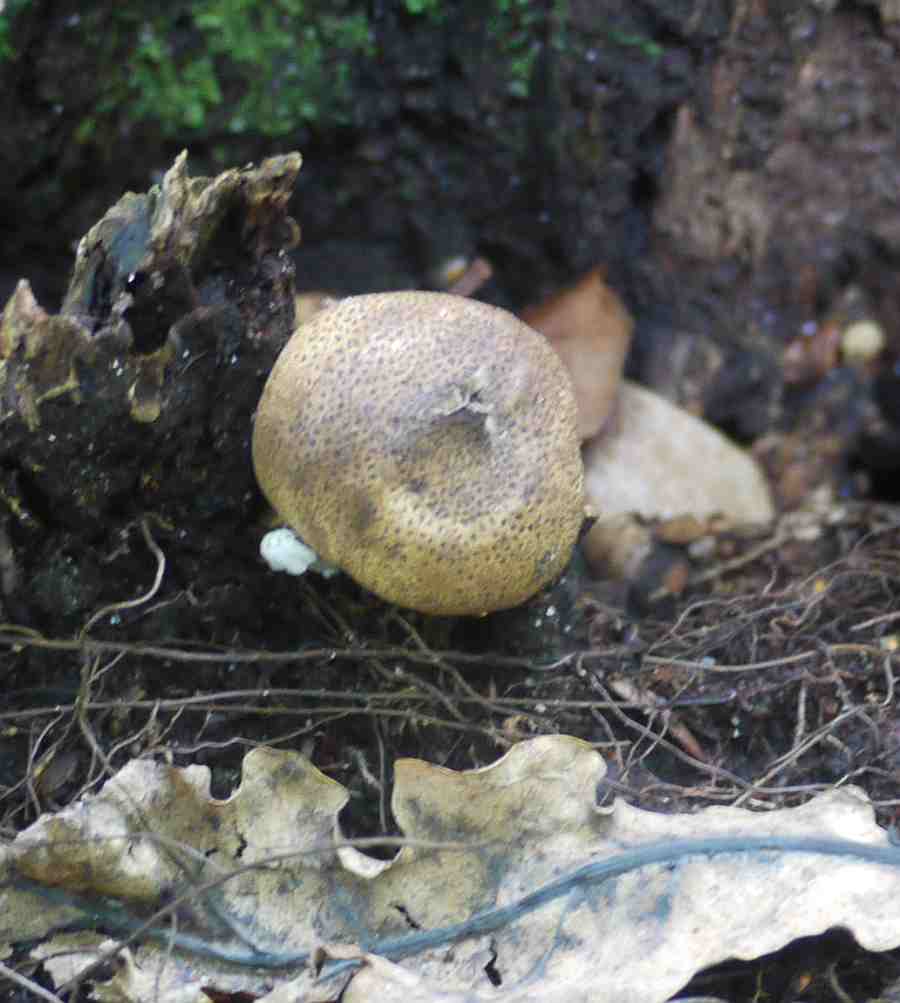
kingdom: Fungi
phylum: Basidiomycota
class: Agaricomycetes
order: Boletales
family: Sclerodermataceae
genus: Scleroderma
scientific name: Scleroderma areolatum
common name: plettet bruskbold
